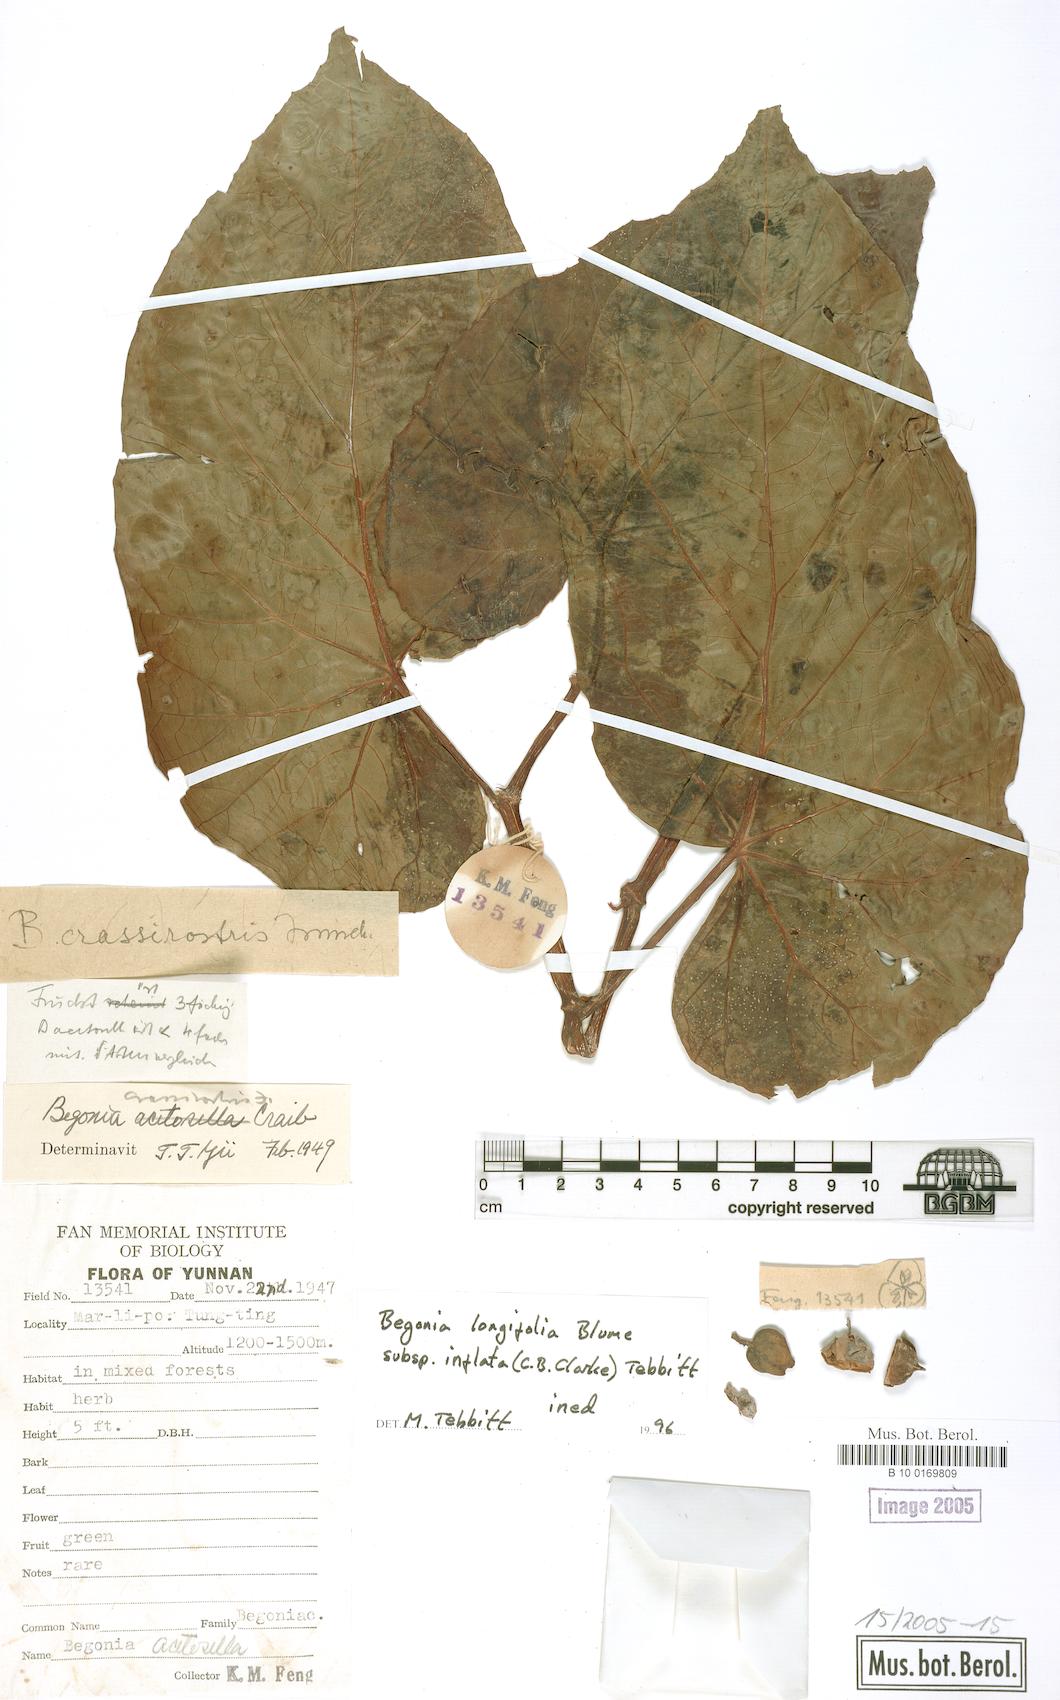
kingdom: Plantae
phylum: Tracheophyta
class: Magnoliopsida
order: Cucurbitales
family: Begoniaceae
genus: Begonia
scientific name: Begonia longifolia
